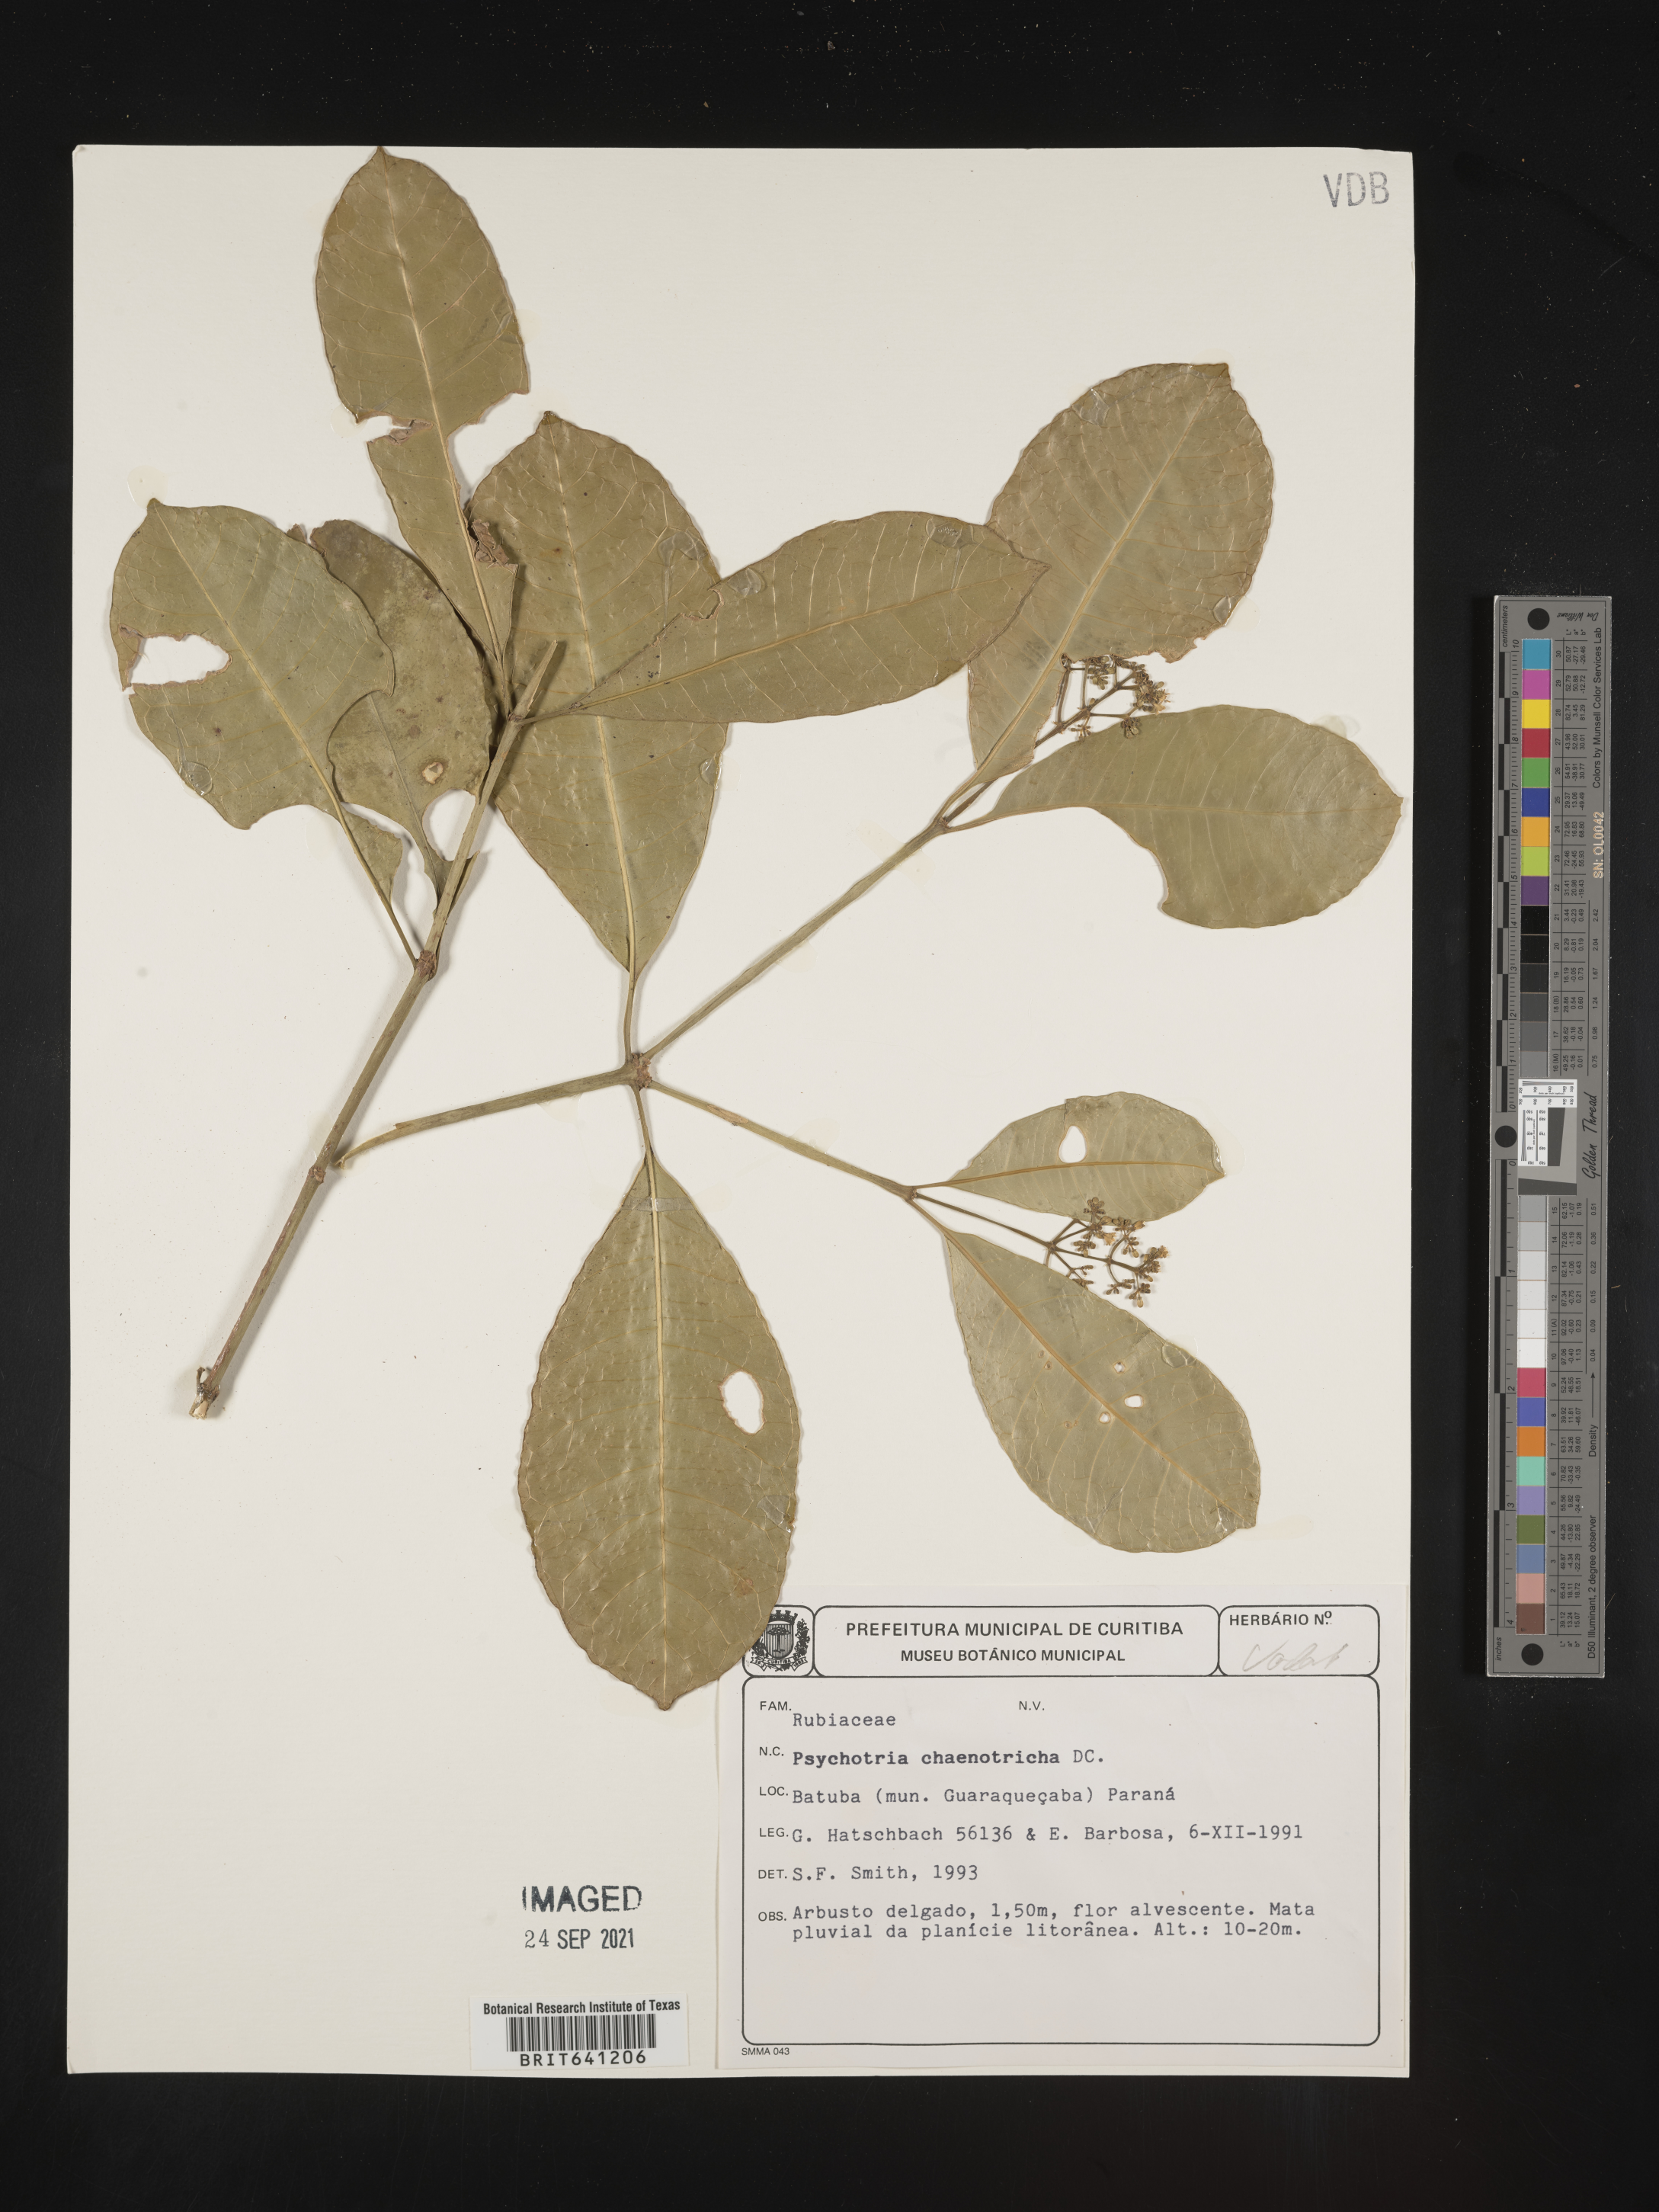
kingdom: Plantae
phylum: Tracheophyta
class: Magnoliopsida
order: Gentianales
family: Rubiaceae
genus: Psychotria
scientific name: Psychotria
